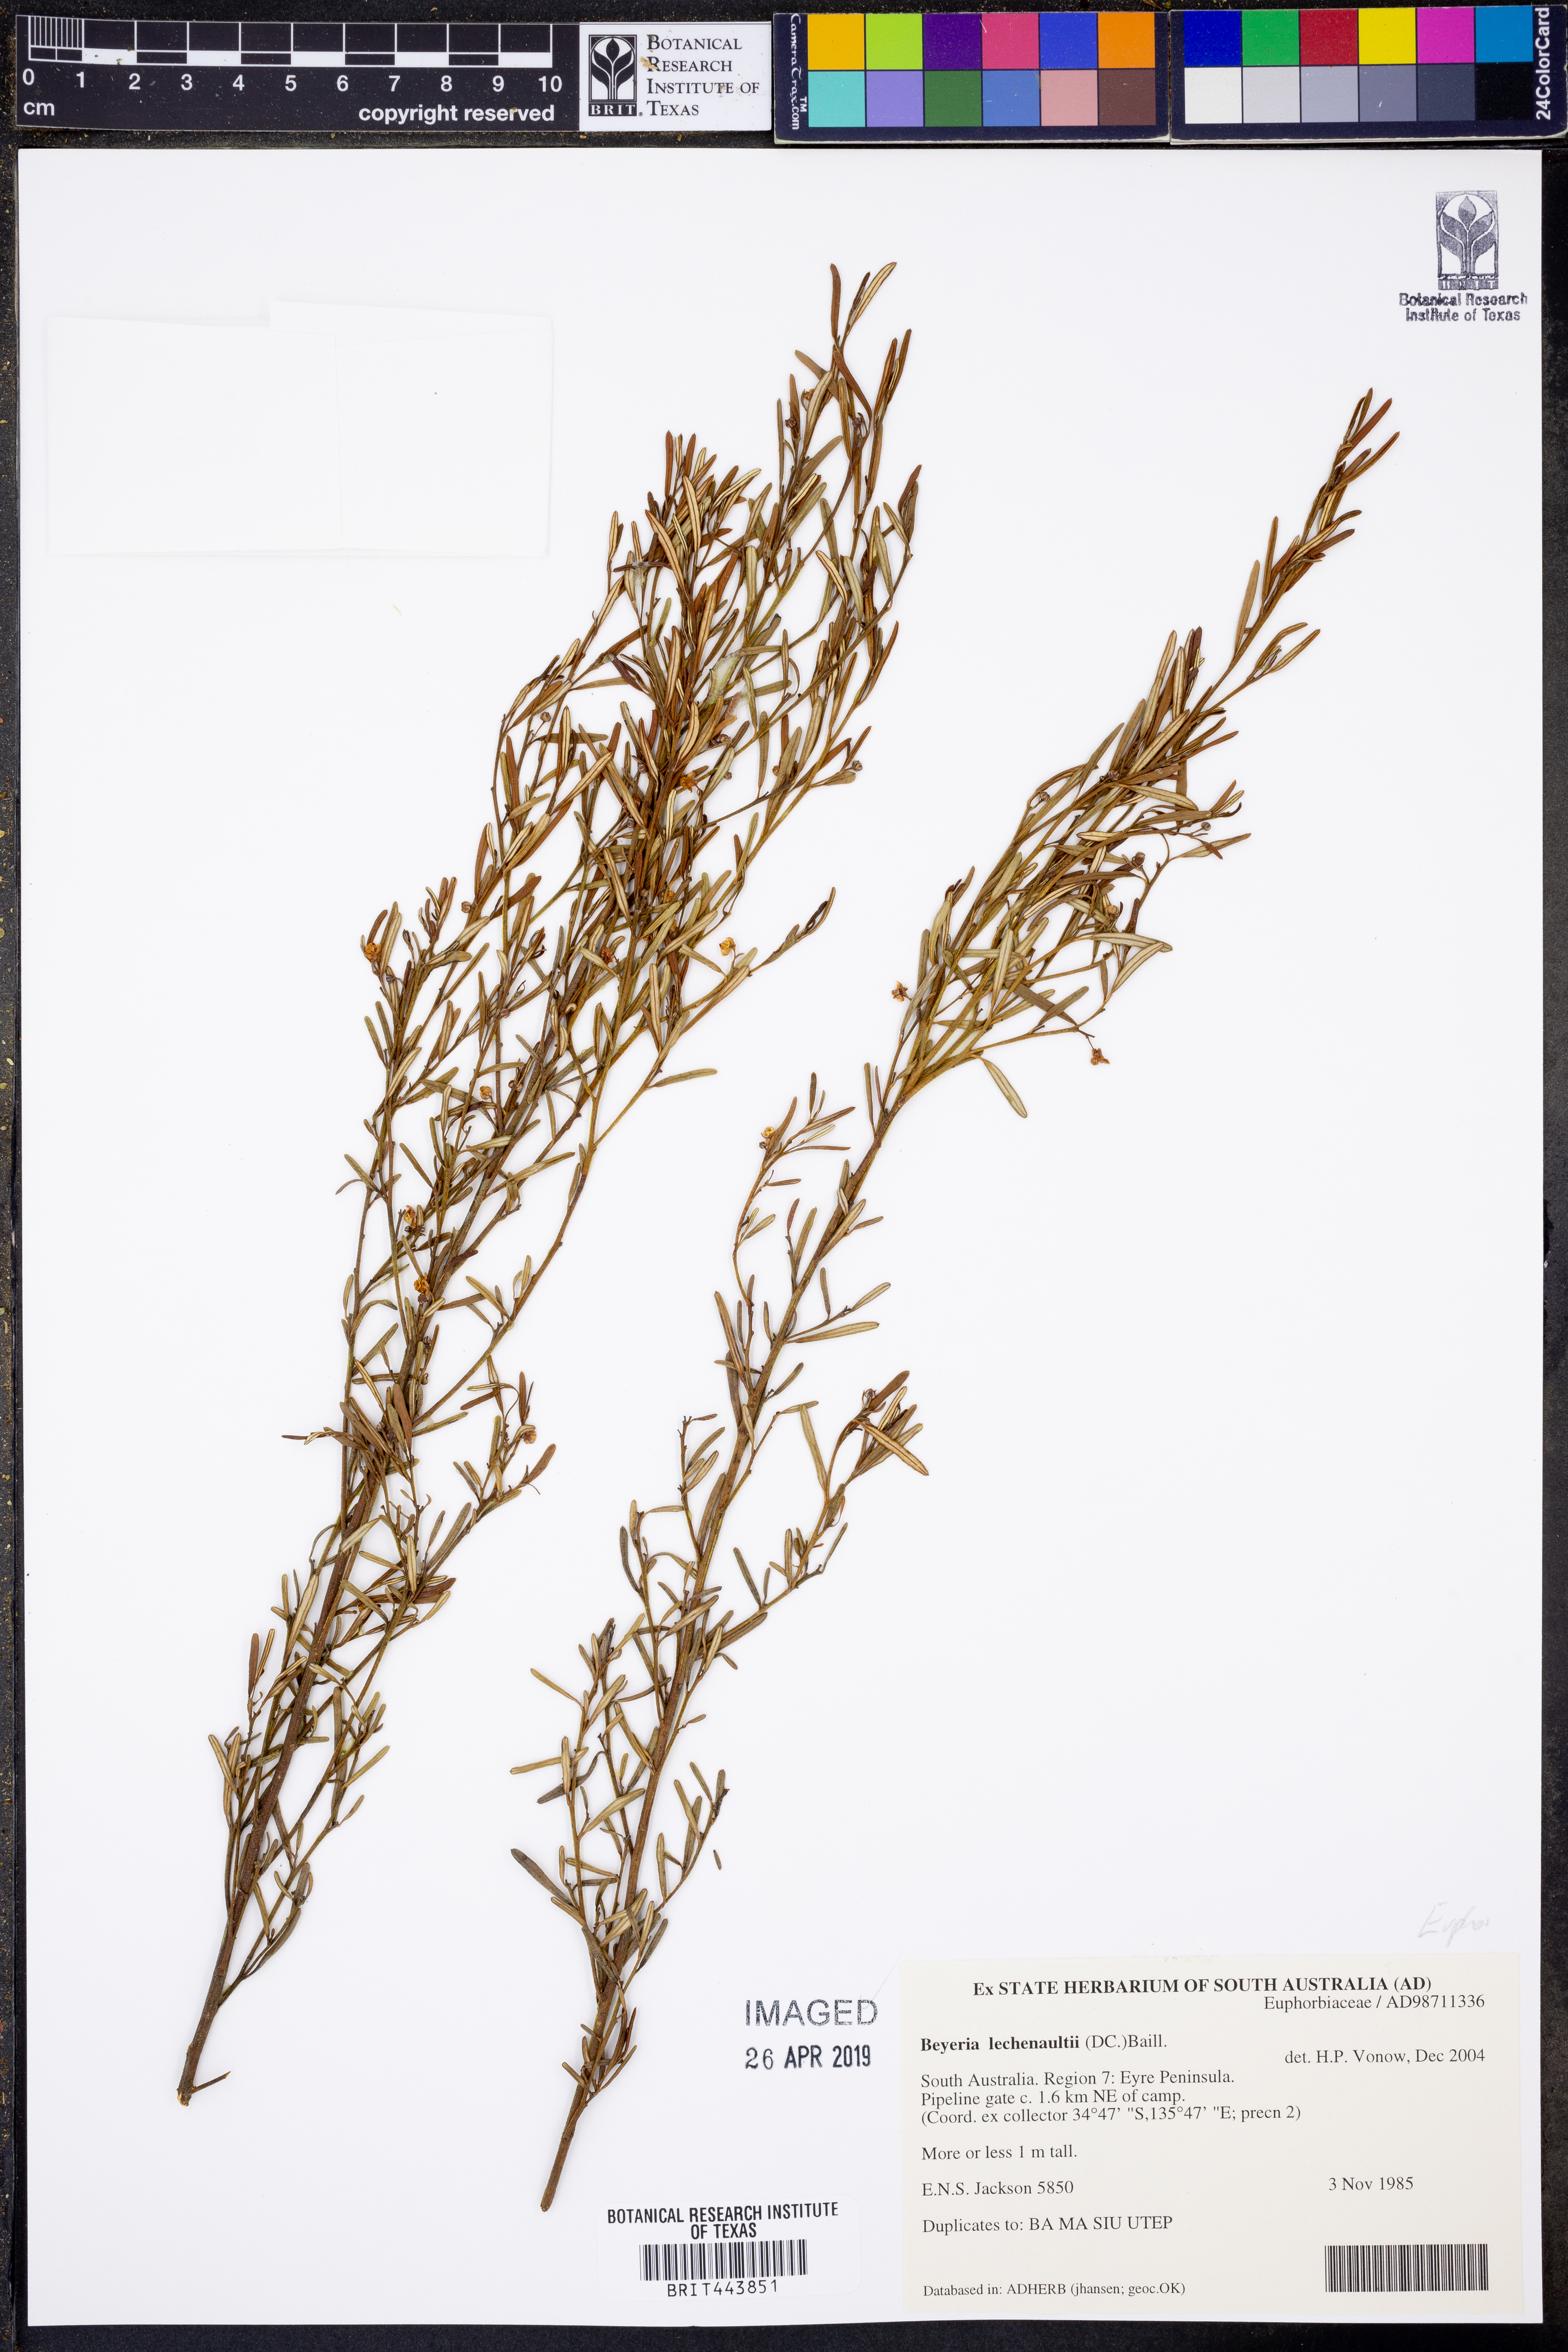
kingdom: Plantae
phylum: Tracheophyta
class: Magnoliopsida
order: Malpighiales
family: Euphorbiaceae
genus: Beyeria
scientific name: Beyeria lechenaultii
